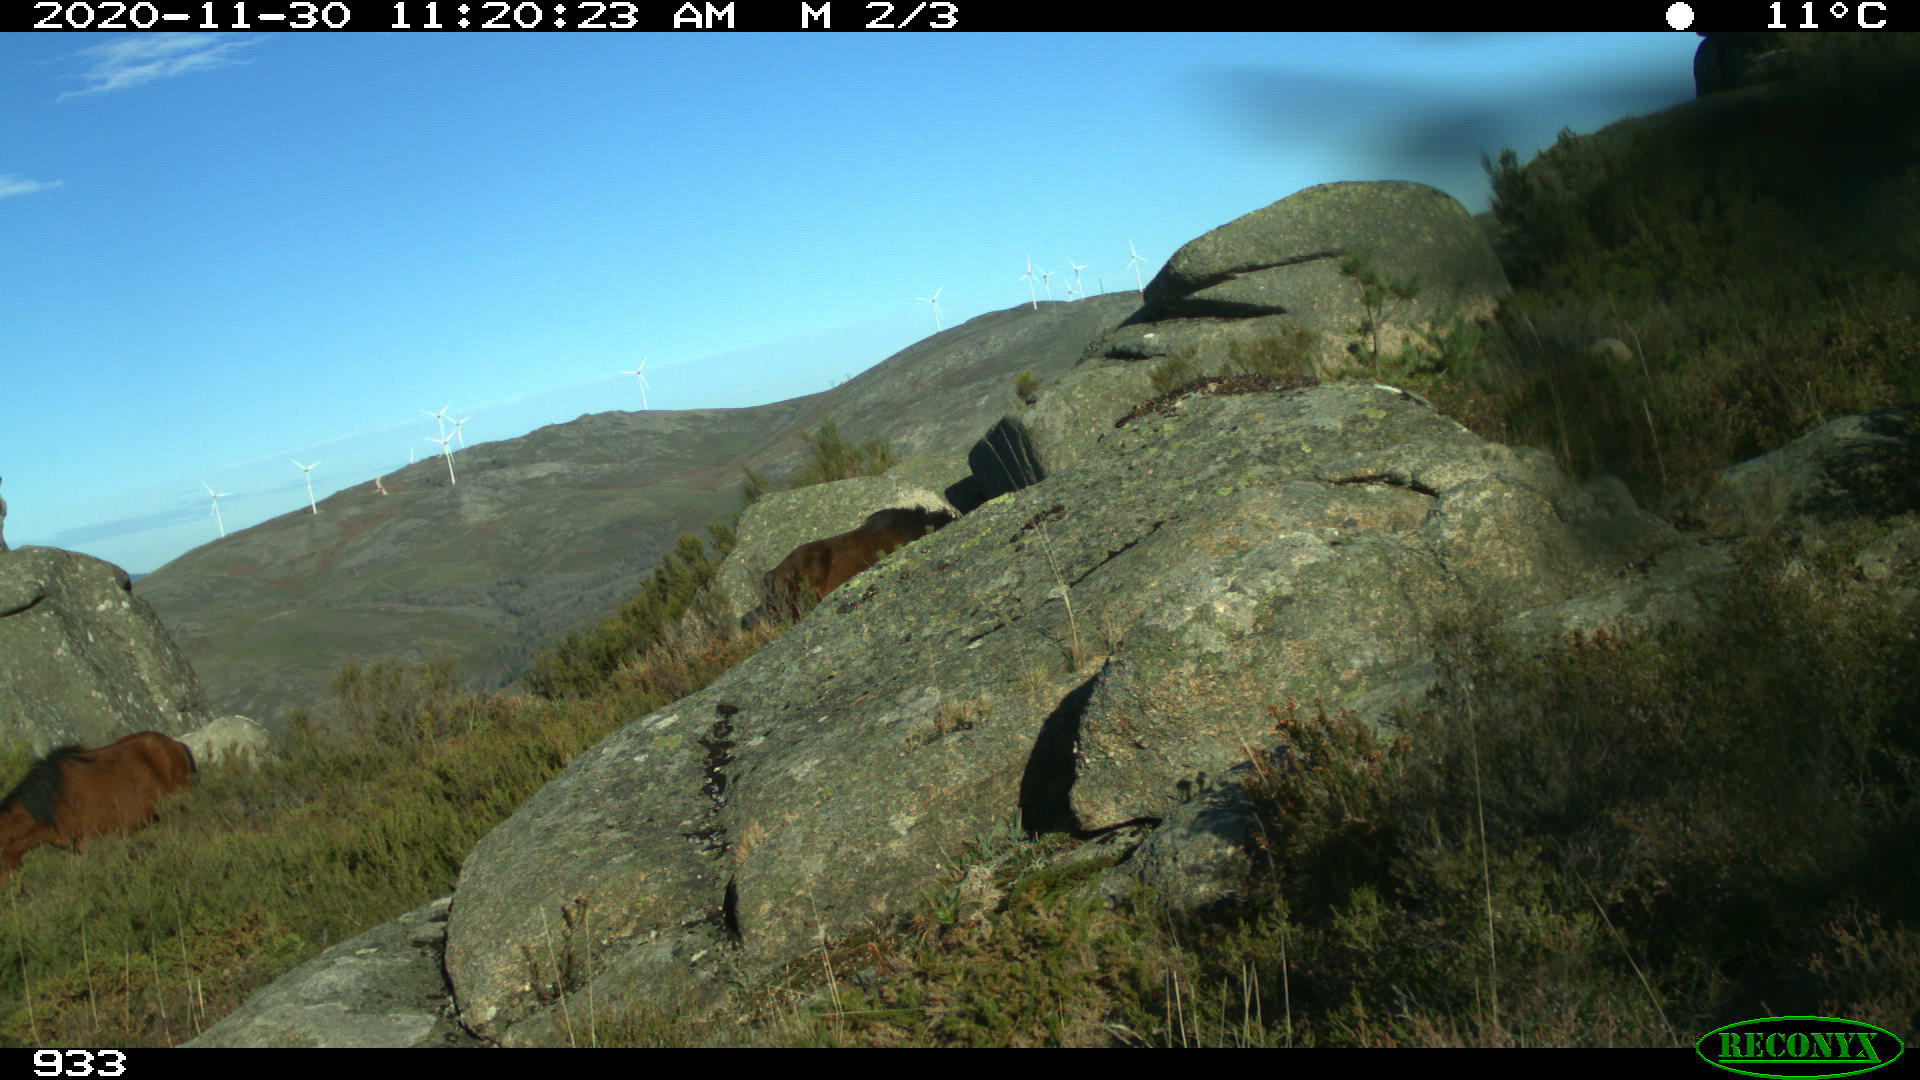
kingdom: Animalia
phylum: Chordata
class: Mammalia
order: Perissodactyla
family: Equidae
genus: Equus
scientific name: Equus caballus
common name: Horse
